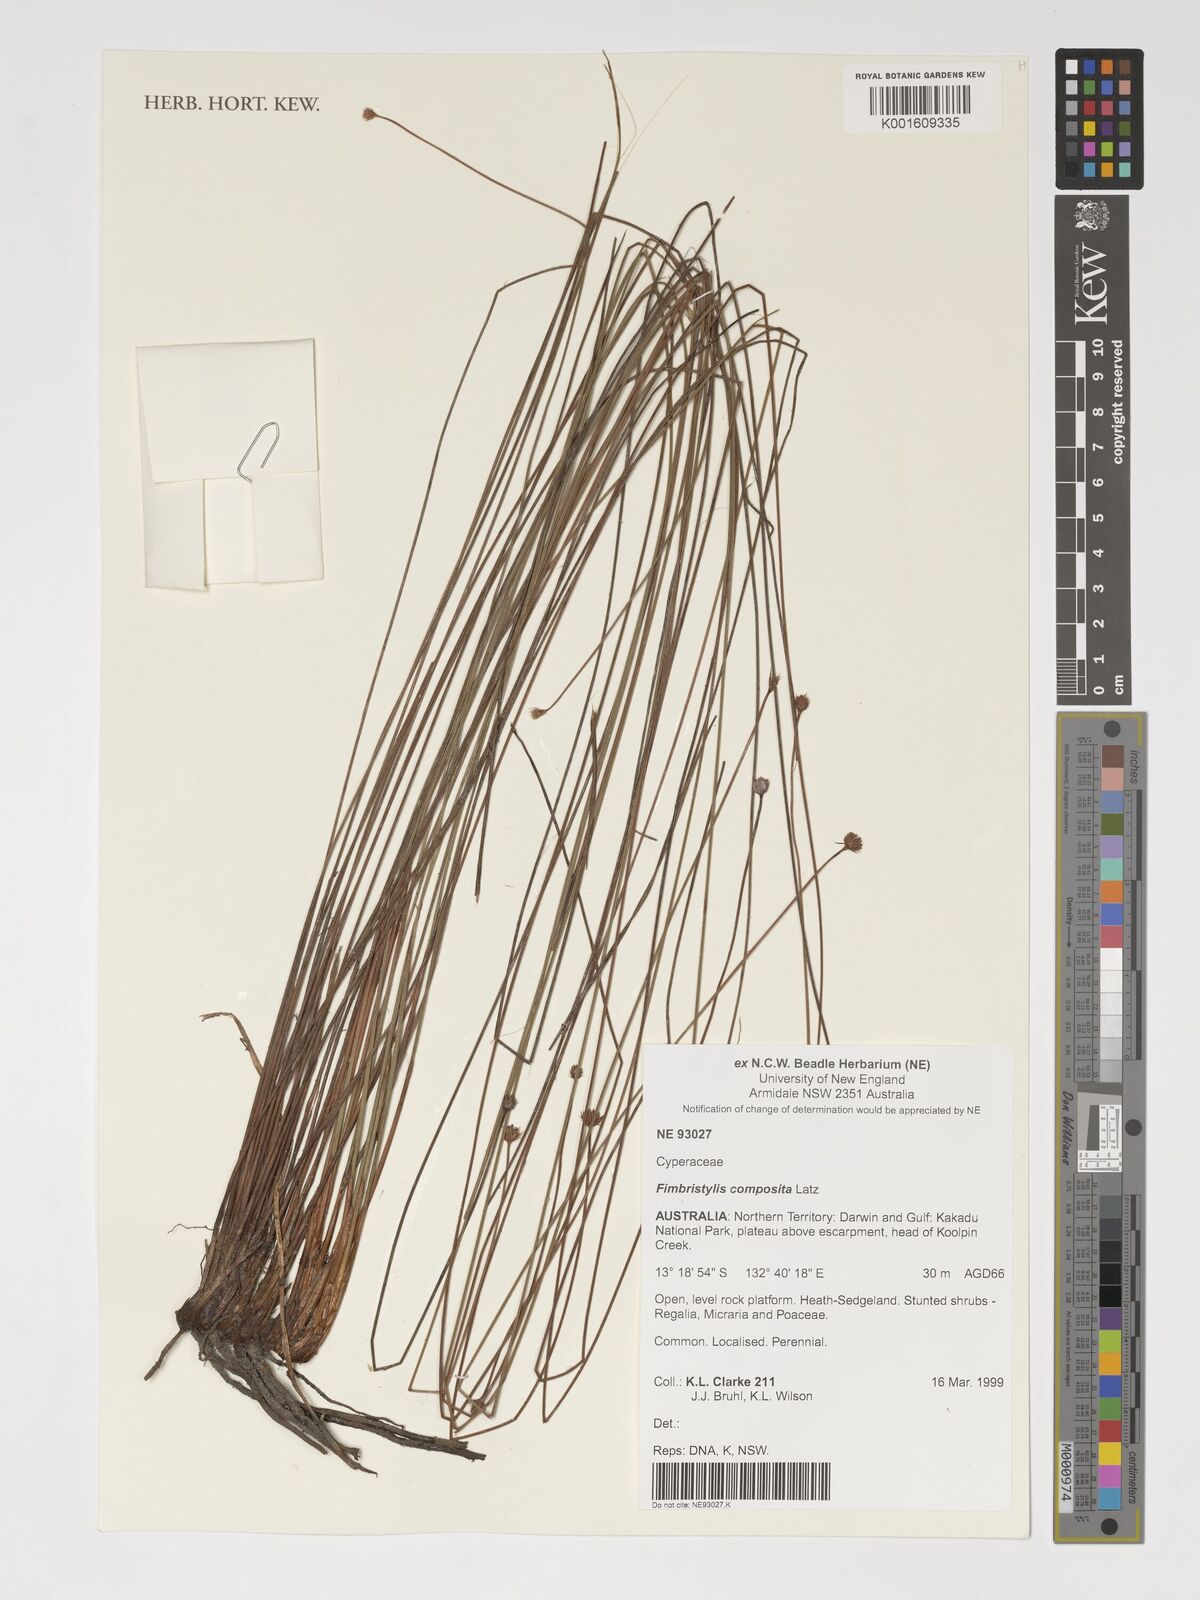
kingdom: Plantae
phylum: Tracheophyta
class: Liliopsida
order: Poales
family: Cyperaceae
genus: Scleroschoenus
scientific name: Scleroschoenus compositus
